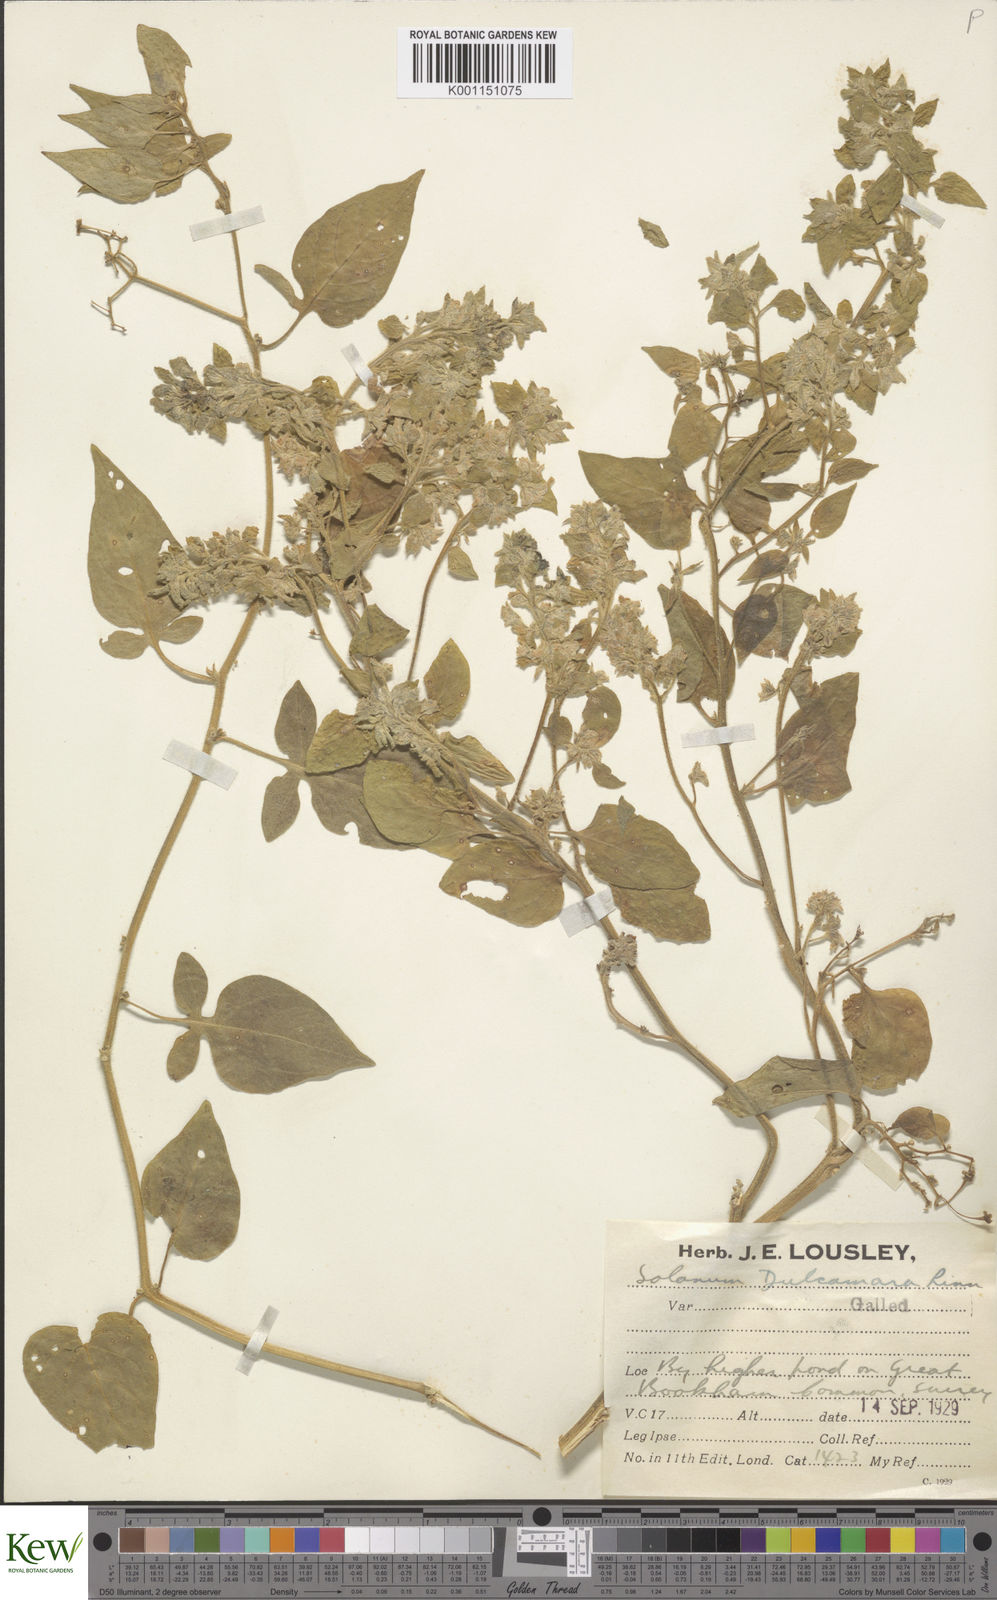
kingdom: Plantae
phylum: Tracheophyta
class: Magnoliopsida
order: Solanales
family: Solanaceae
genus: Solanum
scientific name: Solanum dulcamara
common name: Climbing nightshade
